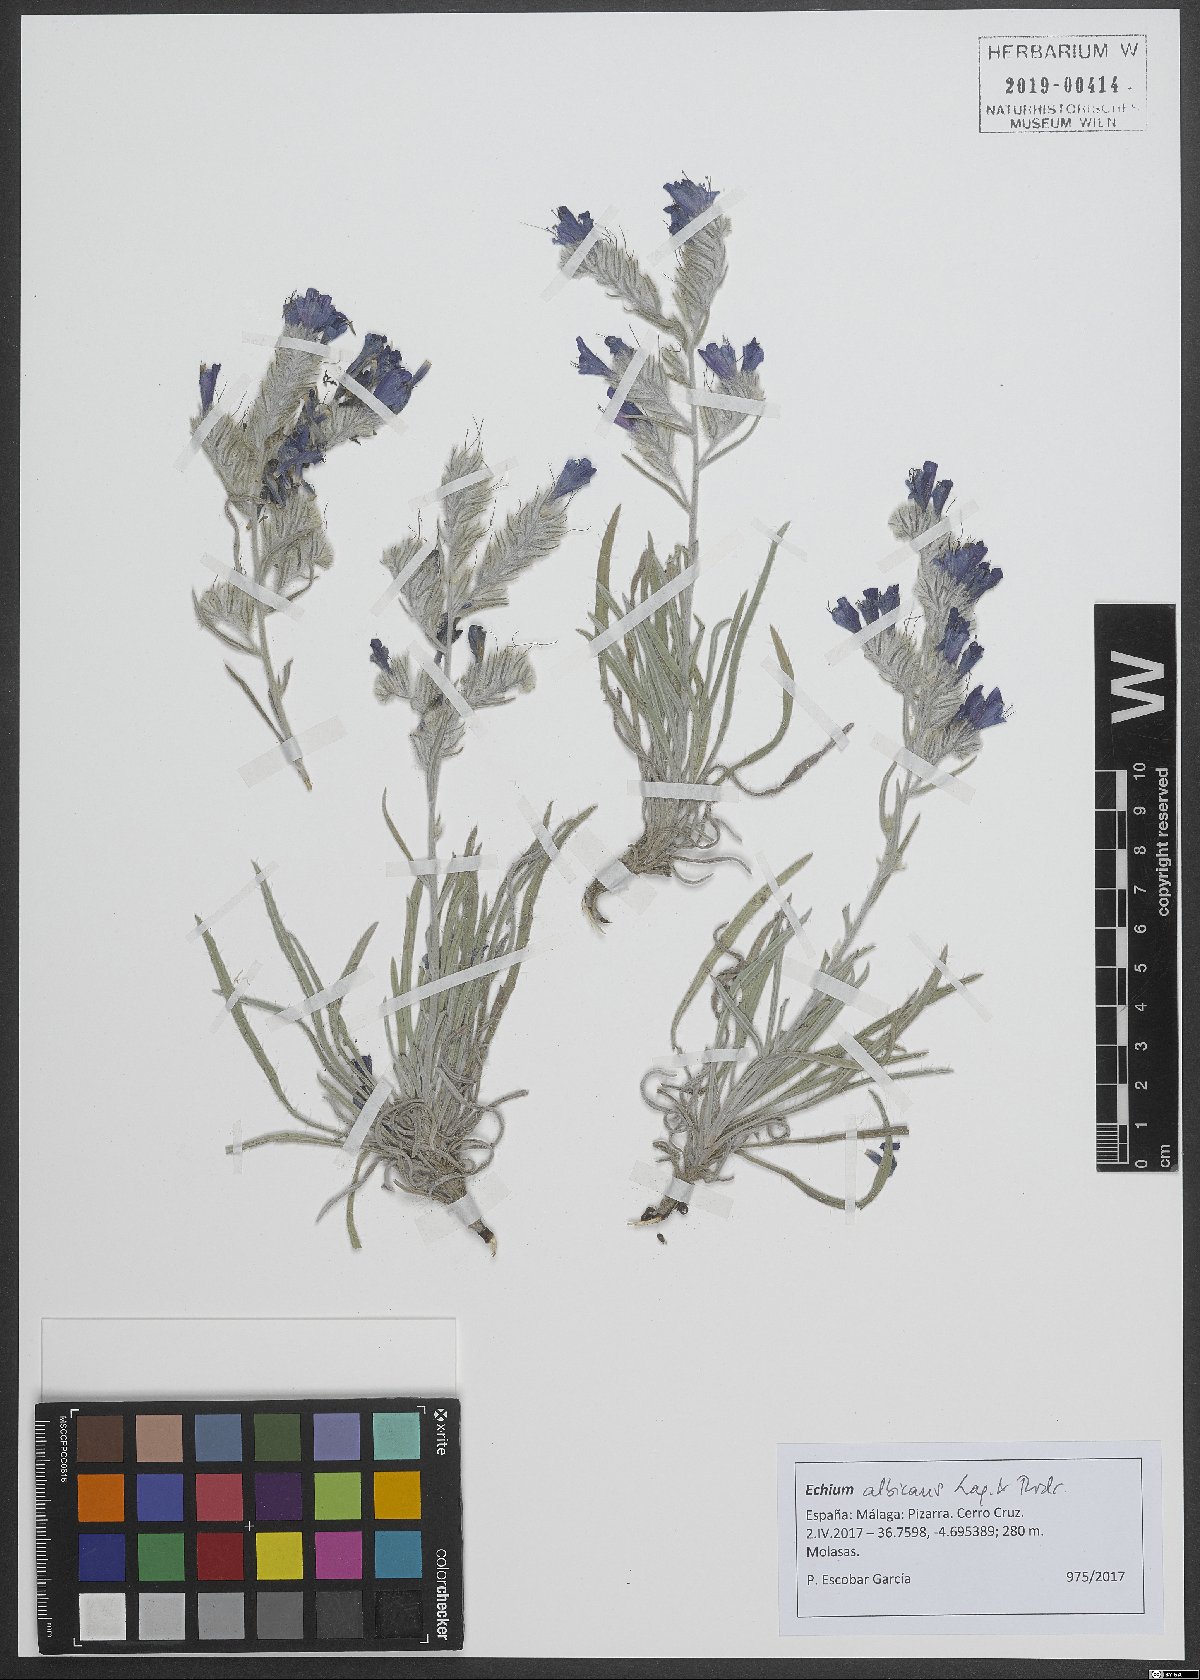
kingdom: Plantae
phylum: Tracheophyta
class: Magnoliopsida
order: Boraginales
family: Boraginaceae
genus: Echium
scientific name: Echium albicans
